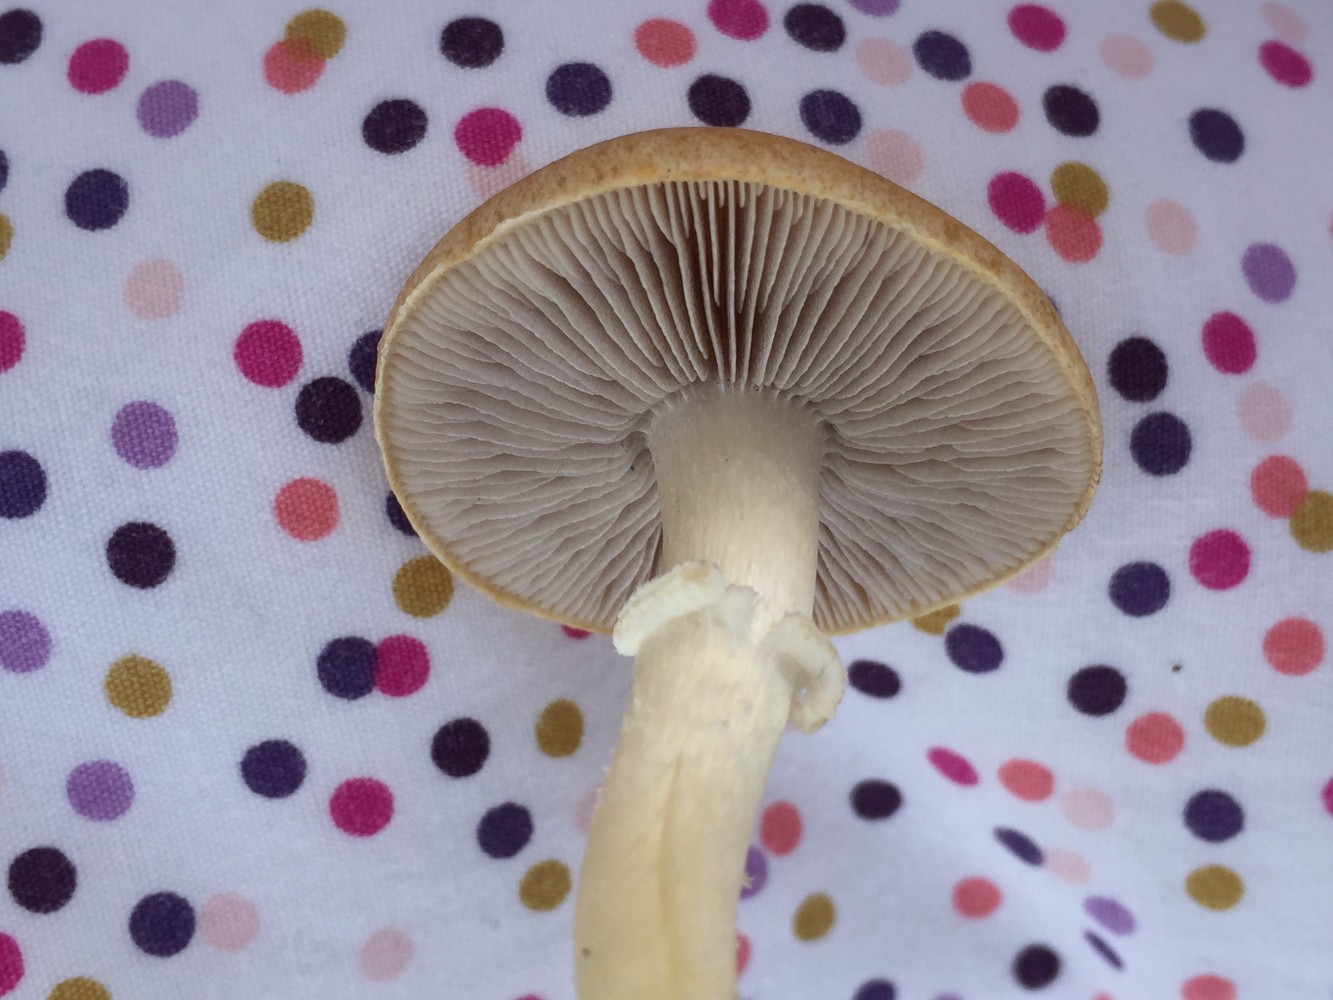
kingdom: Fungi
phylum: Basidiomycota
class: Agaricomycetes
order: Agaricales
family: Hymenogastraceae
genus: Psilocybe
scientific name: Psilocybe coronilla
